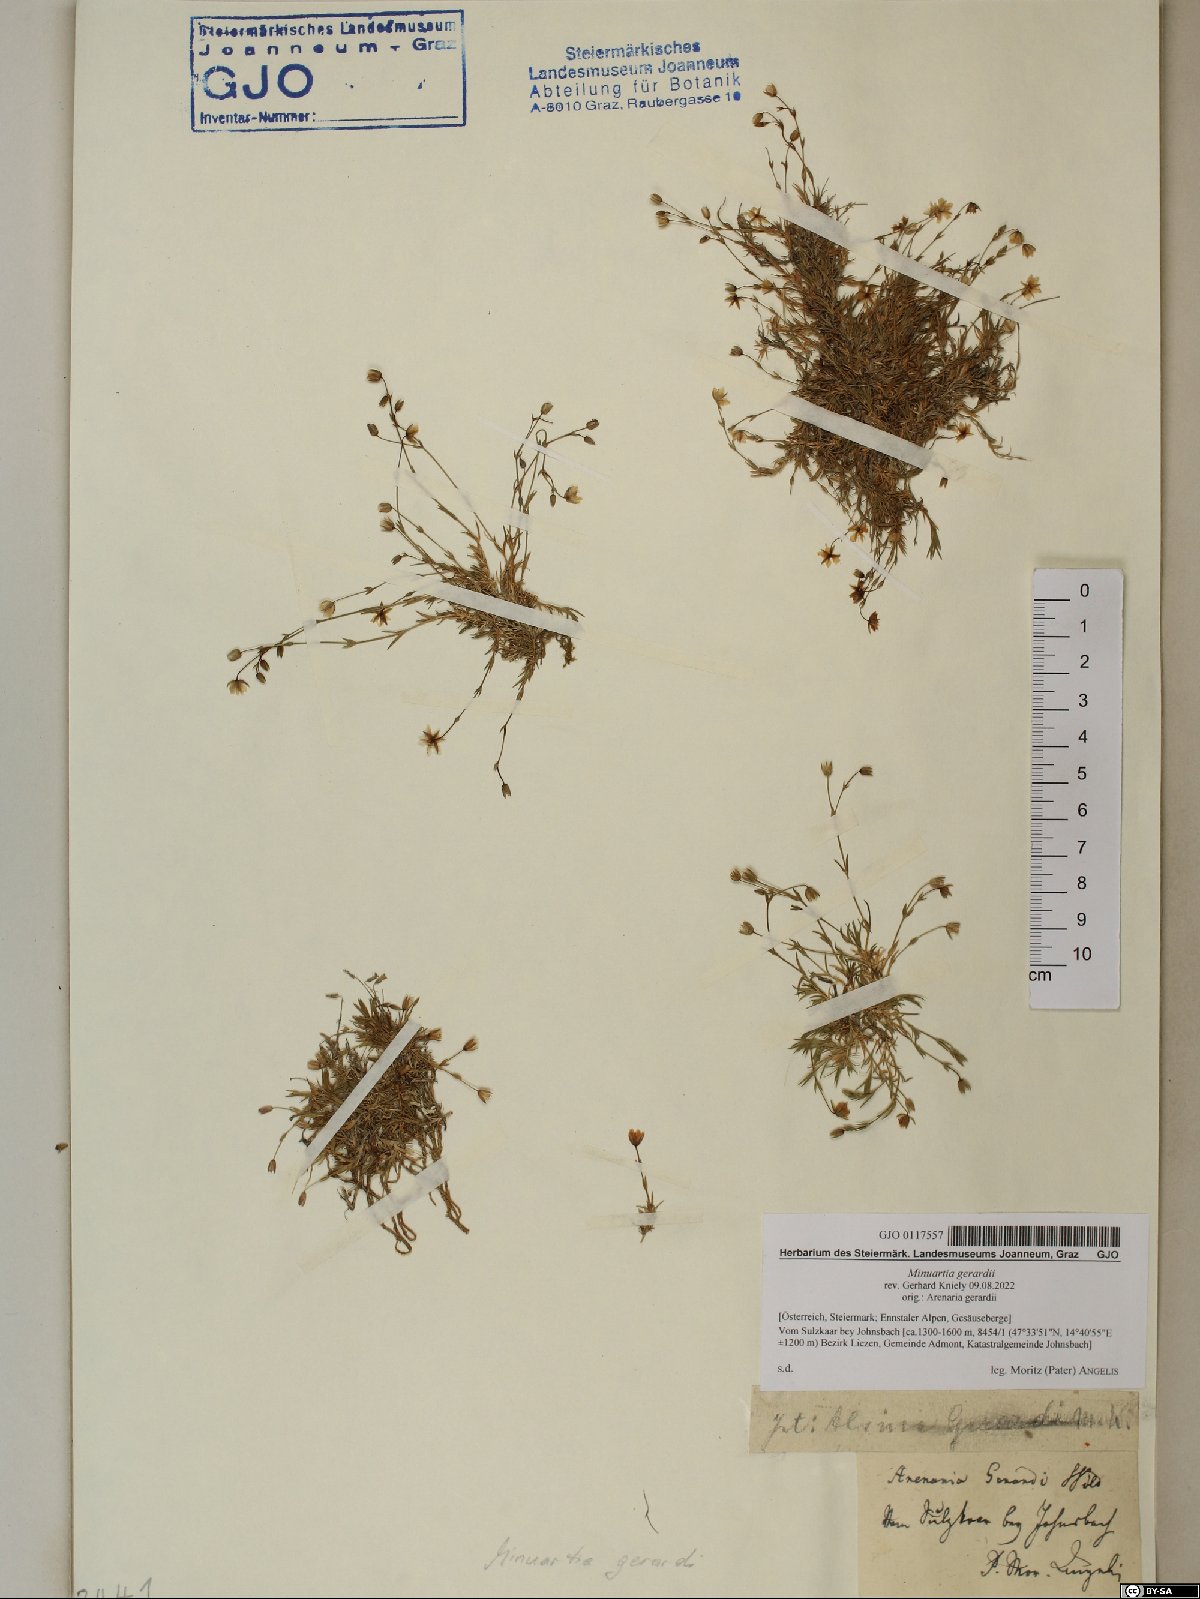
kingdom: Plantae
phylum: Tracheophyta
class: Magnoliopsida
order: Caryophyllales
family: Caryophyllaceae
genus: Sabulina
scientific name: Sabulina verna
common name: Spring sandwort
